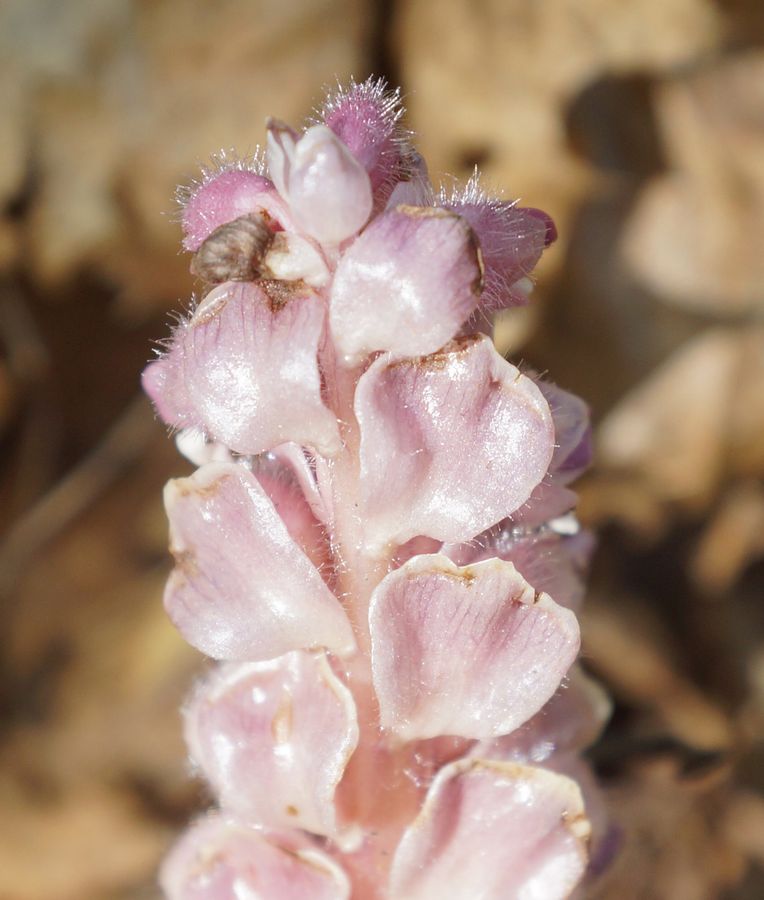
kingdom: Plantae
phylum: Tracheophyta
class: Magnoliopsida
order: Lamiales
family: Orobanchaceae
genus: Lathraea
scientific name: Lathraea squamaria
